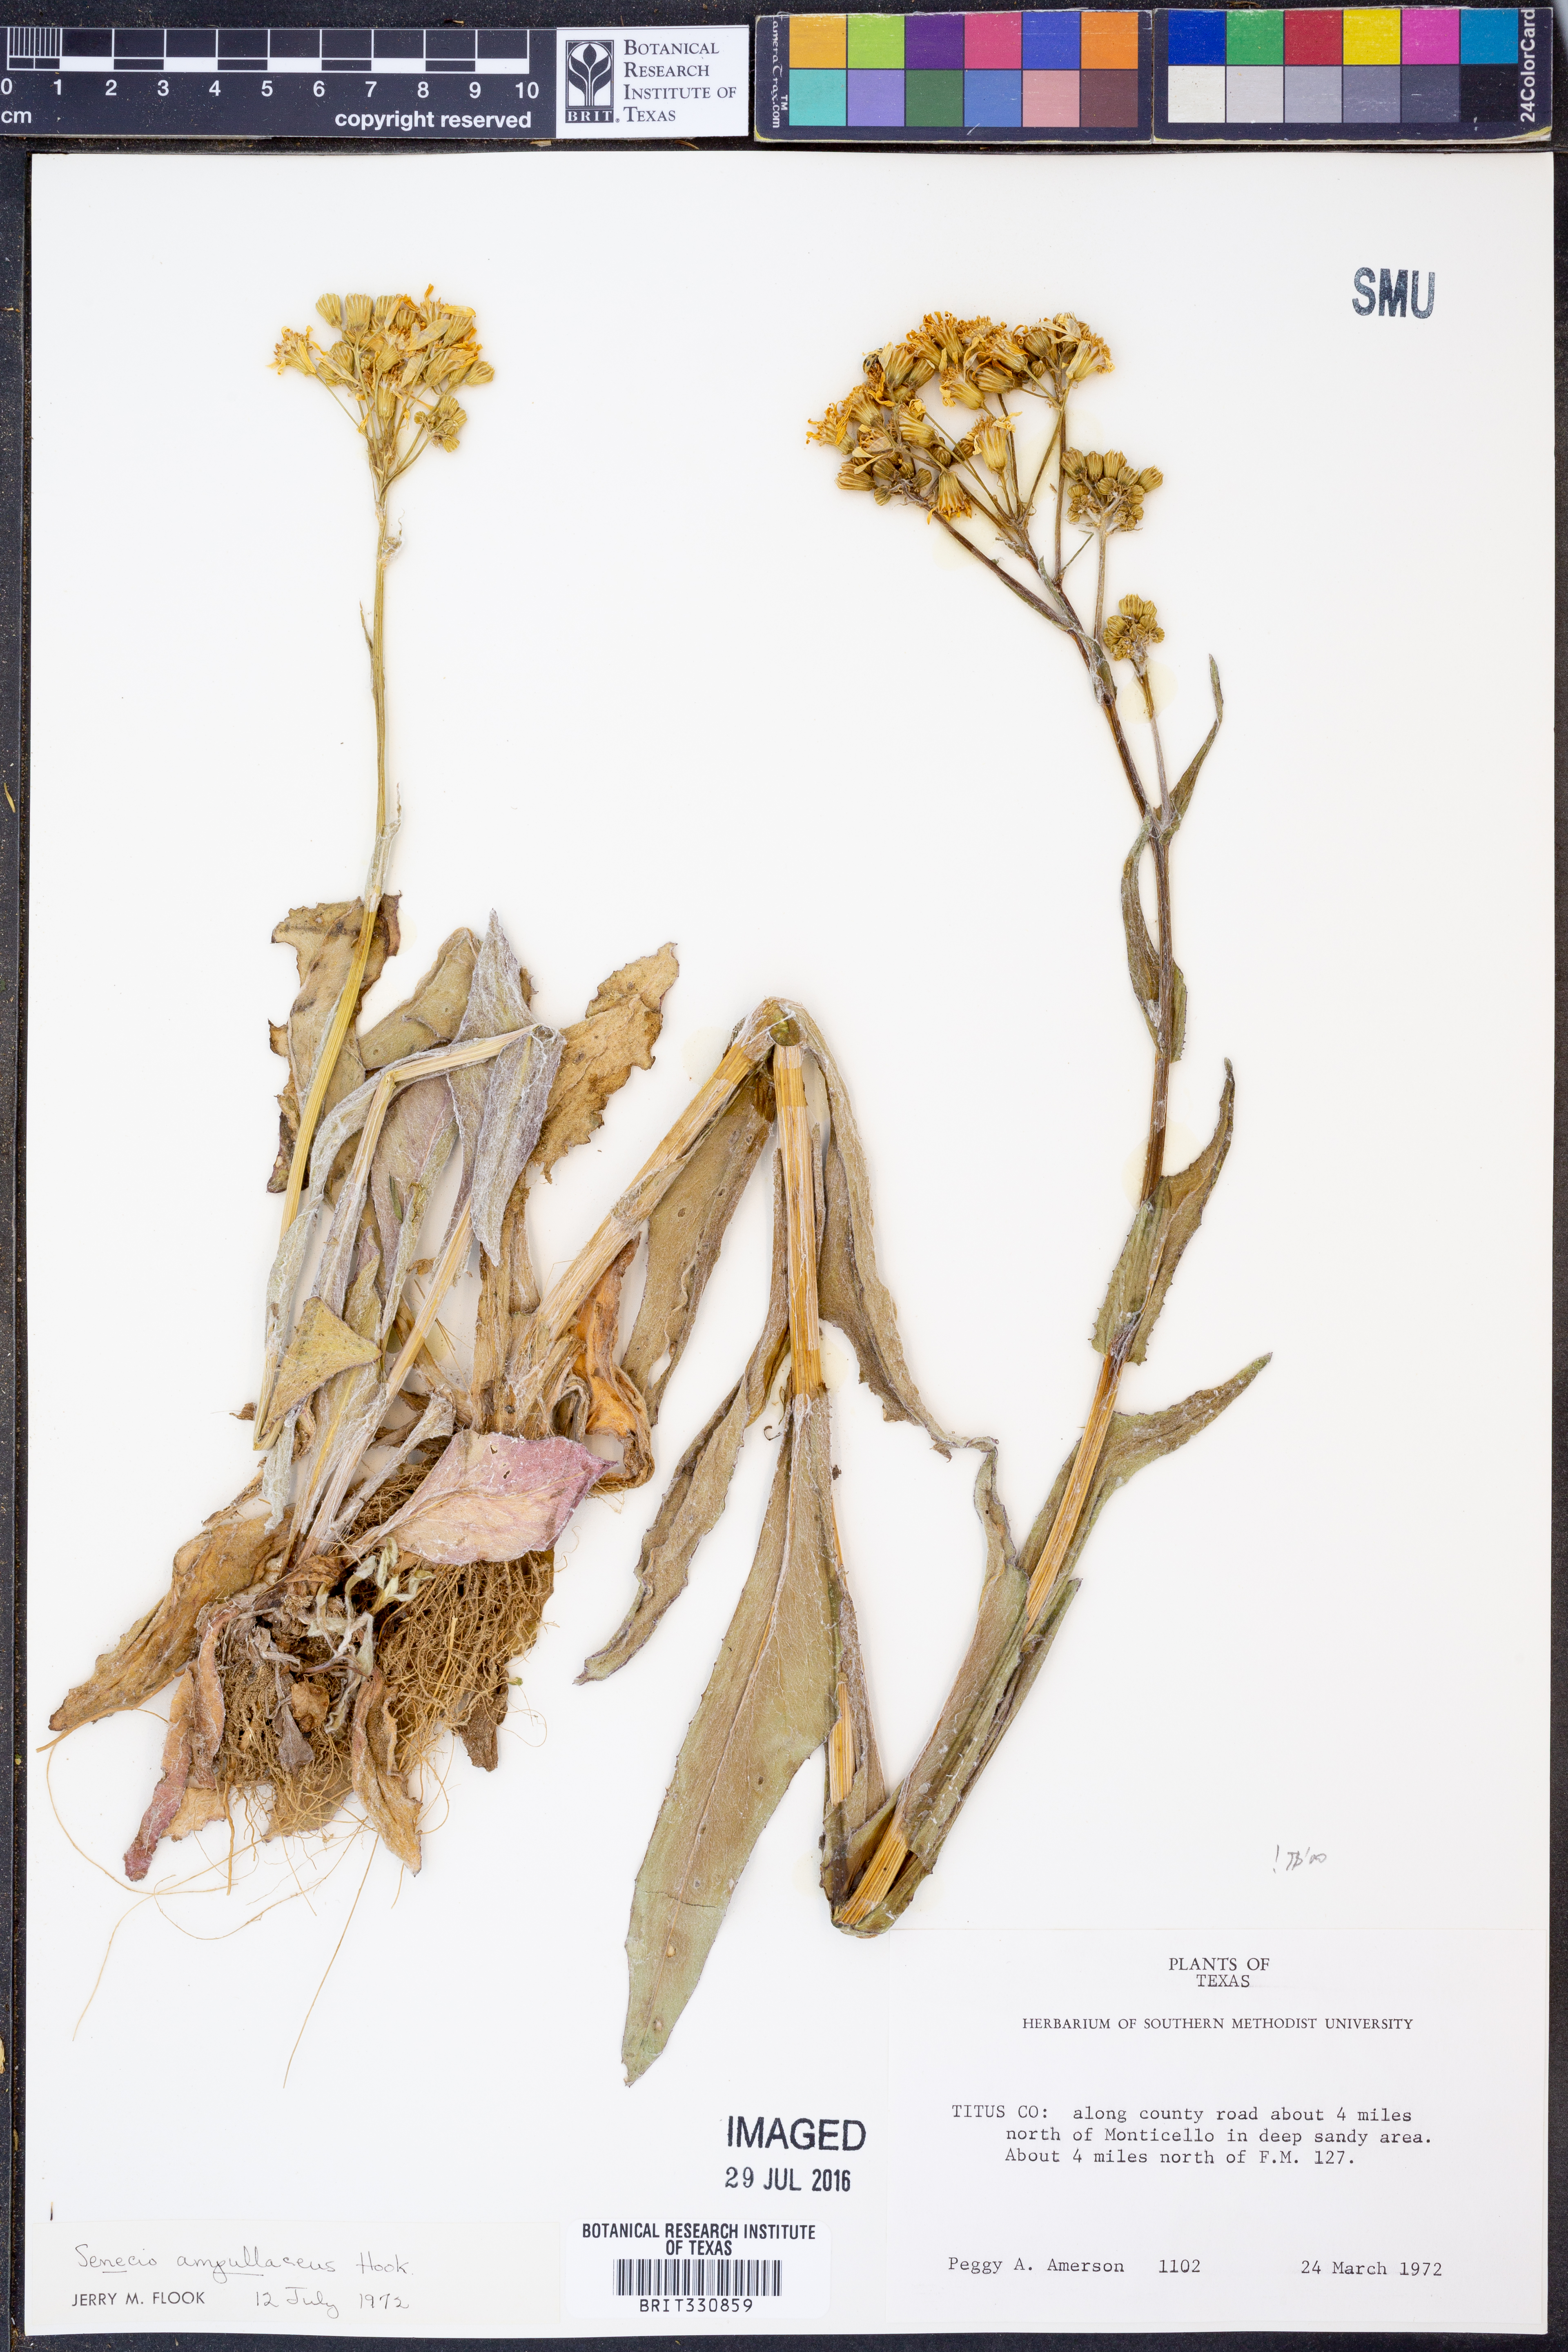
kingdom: Plantae
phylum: Tracheophyta
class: Magnoliopsida
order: Asterales
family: Asteraceae
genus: Senecio
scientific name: Senecio ampullaceus
